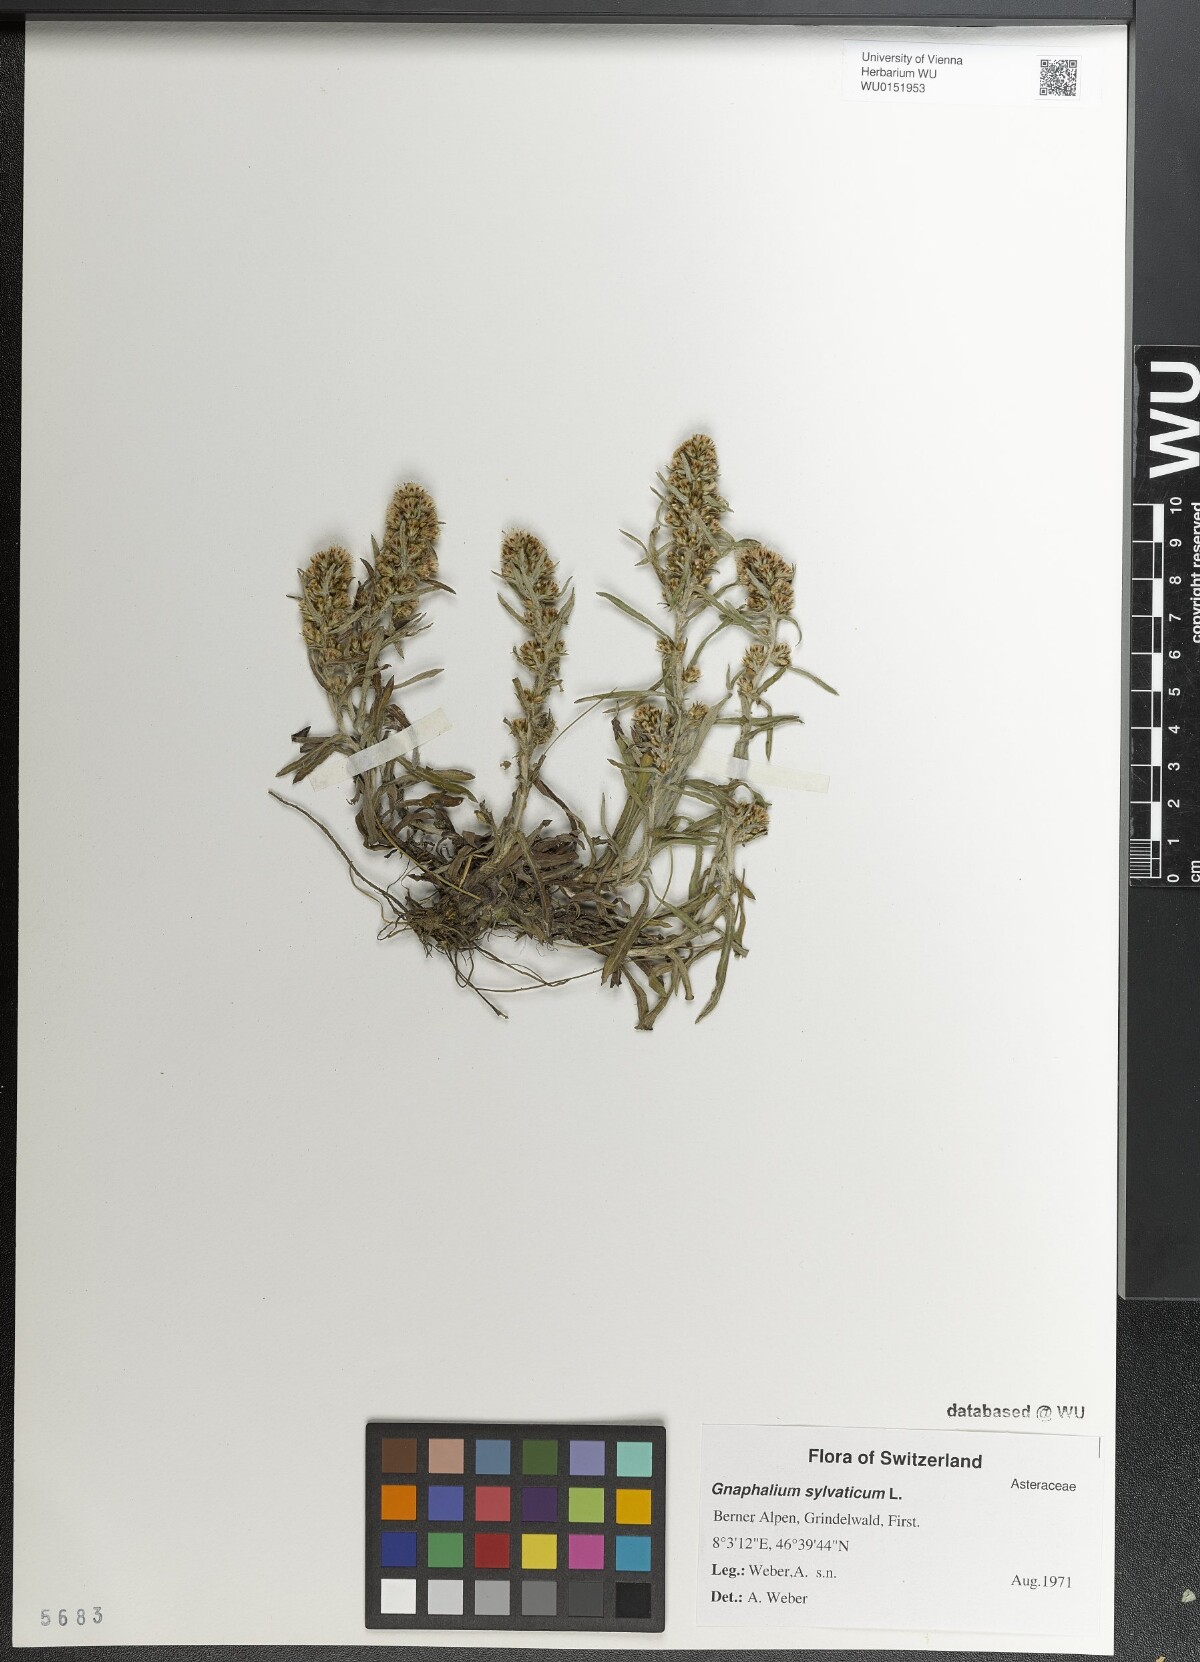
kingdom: Plantae
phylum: Tracheophyta
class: Magnoliopsida
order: Asterales
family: Asteraceae
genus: Omalotheca
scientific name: Omalotheca sylvatica
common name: Heath cudweed
